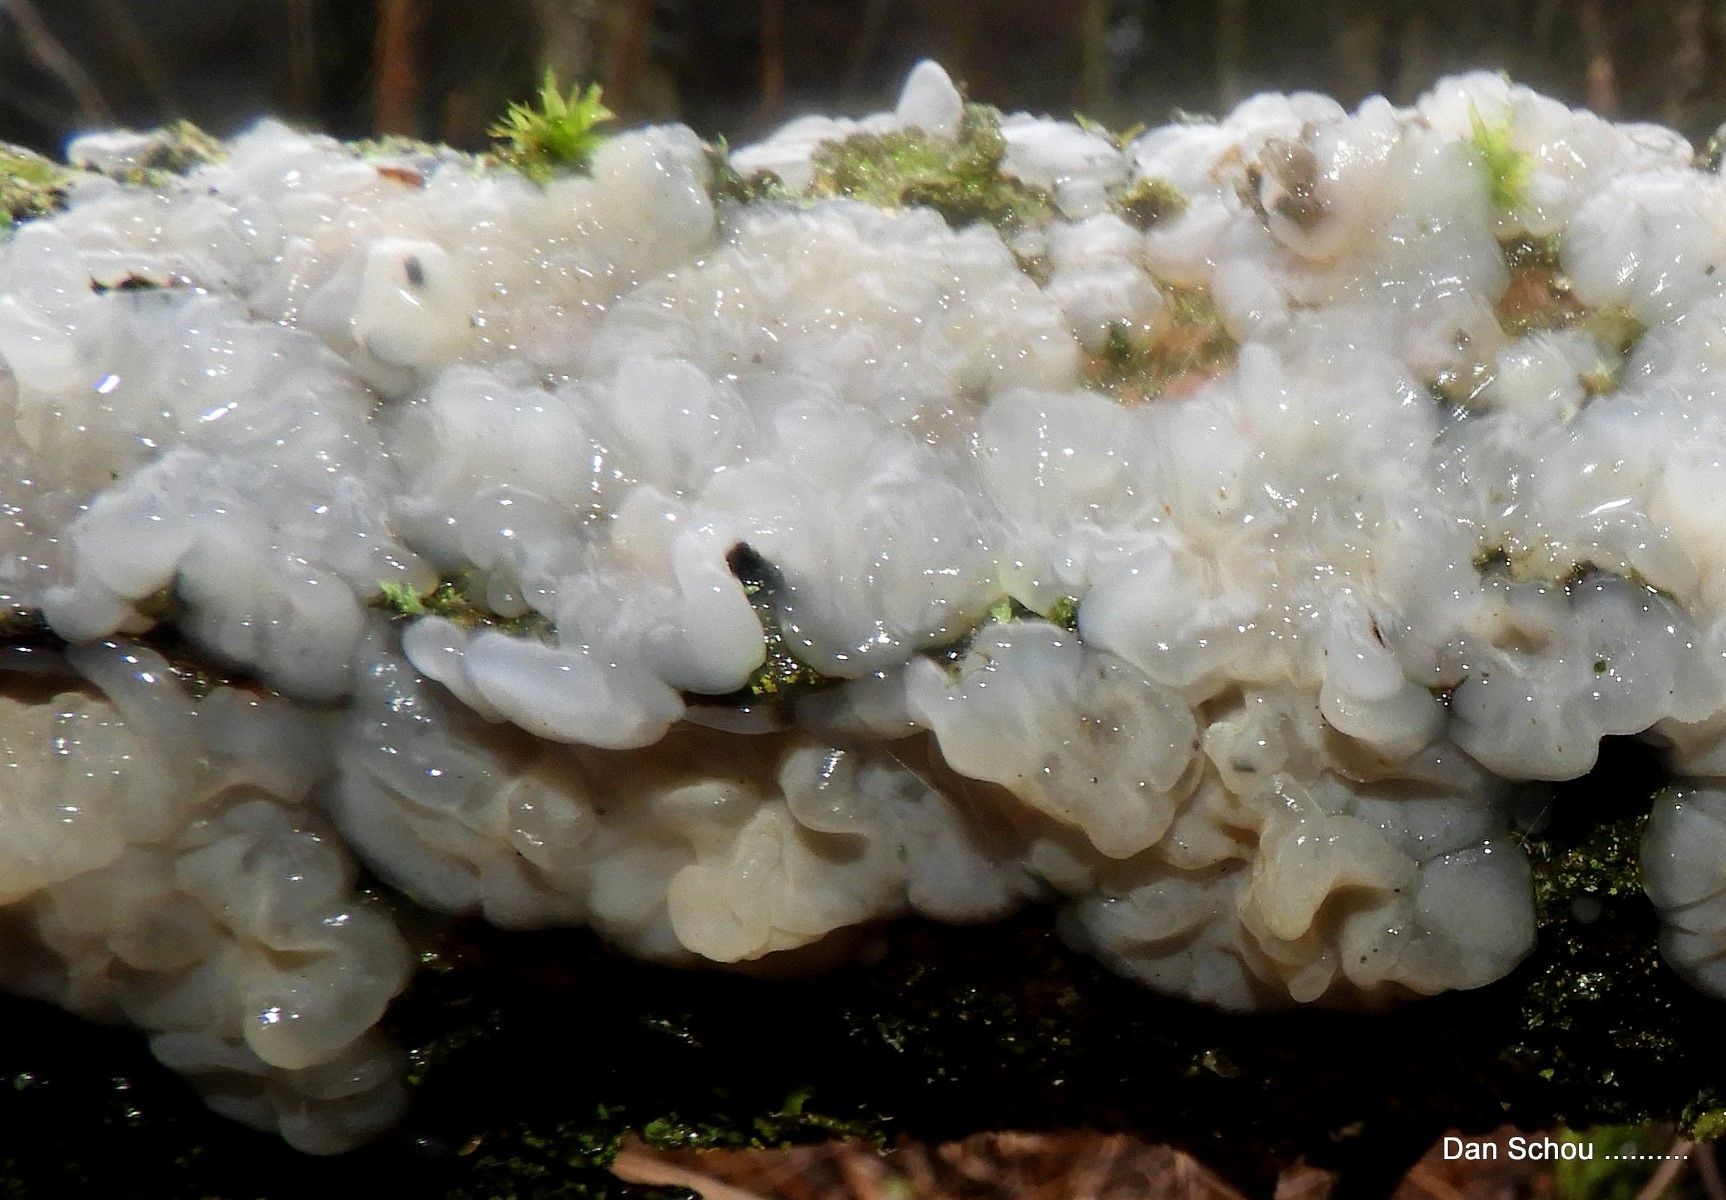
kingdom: Fungi
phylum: Basidiomycota
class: Agaricomycetes
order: Auriculariales
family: Auriculariaceae
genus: Exidia
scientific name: Exidia thuretiana
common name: hvidlig bævretop
